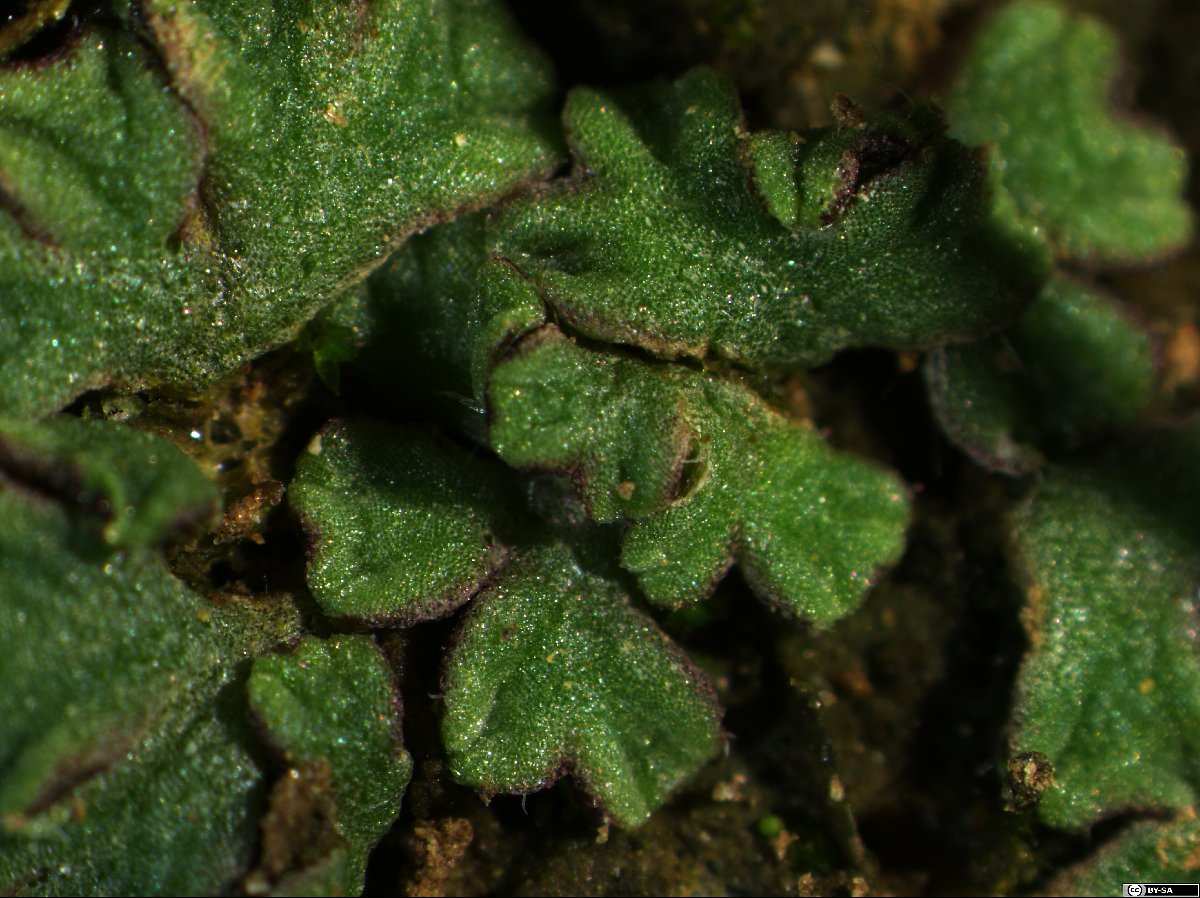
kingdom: Plantae
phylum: Marchantiophyta
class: Marchantiopsida
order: Marchantiales
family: Ricciaceae
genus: Riccia
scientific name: Riccia bifurca
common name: Lizard crystalwort
